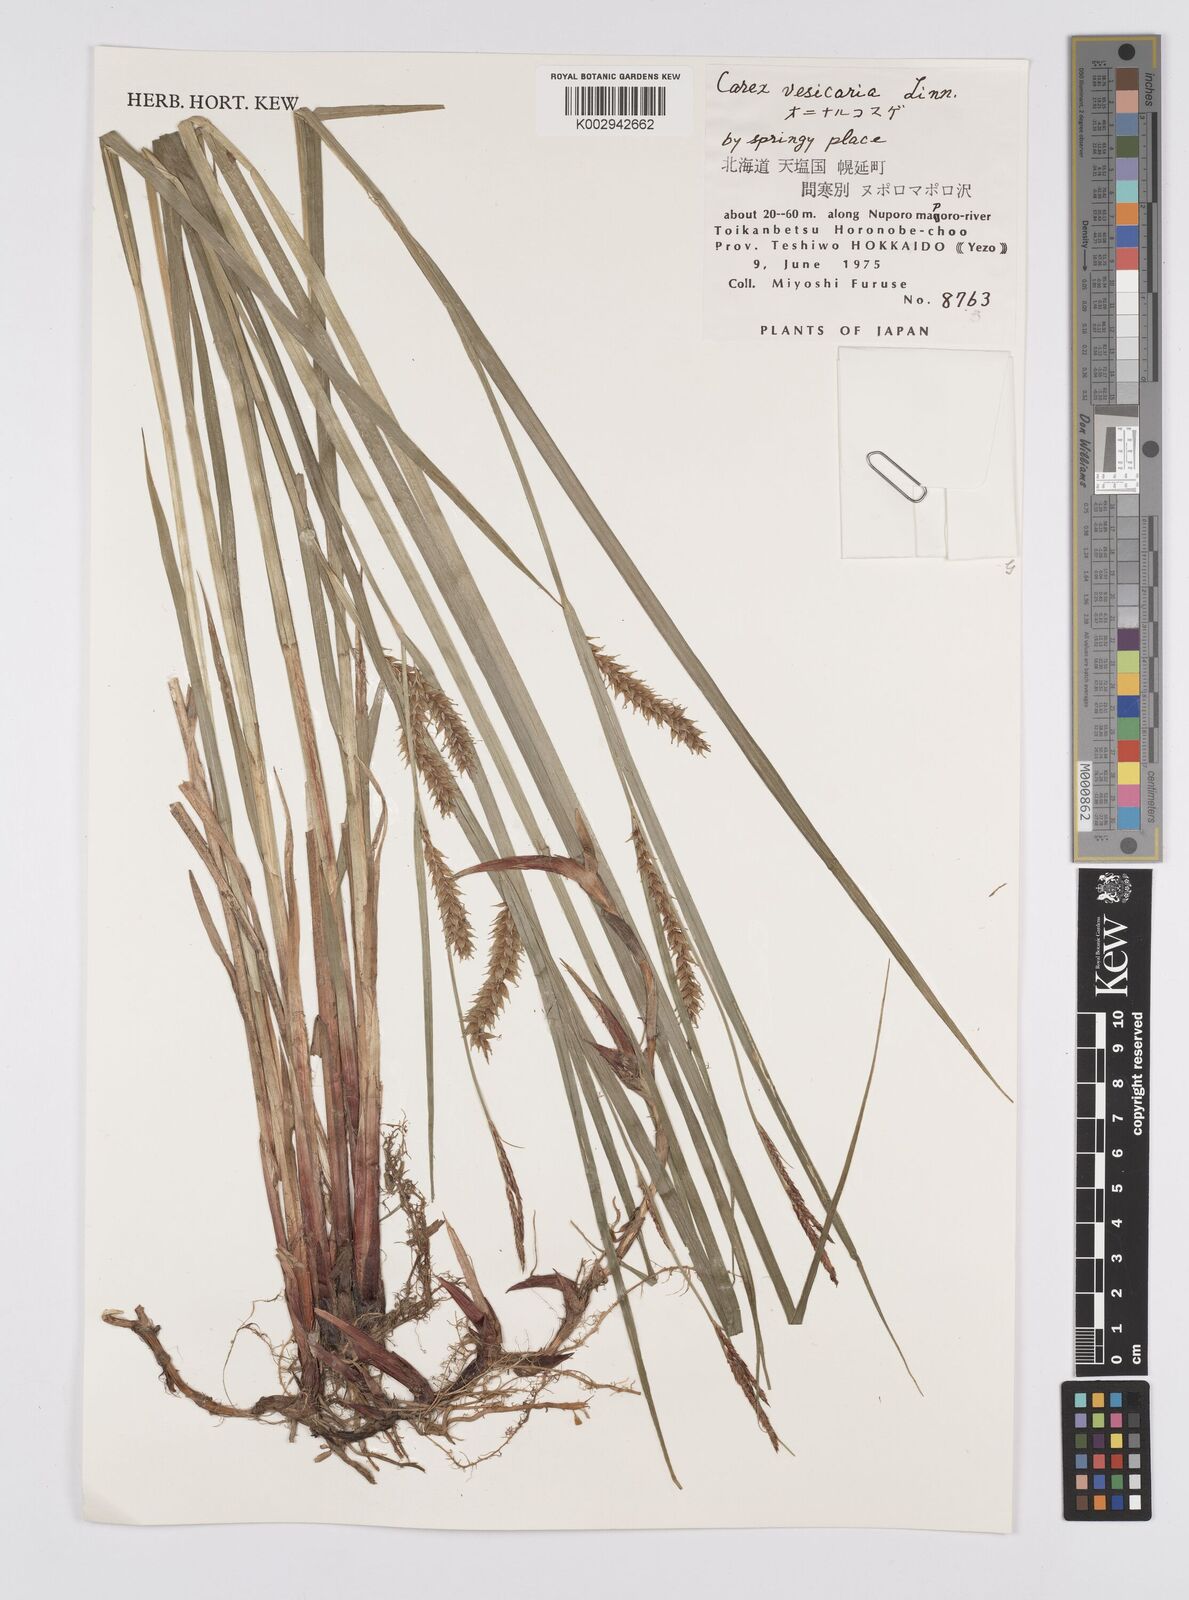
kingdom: Plantae
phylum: Tracheophyta
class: Liliopsida
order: Poales
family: Cyperaceae
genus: Carex
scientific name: Carex vesicaria
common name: Bladder-sedge
